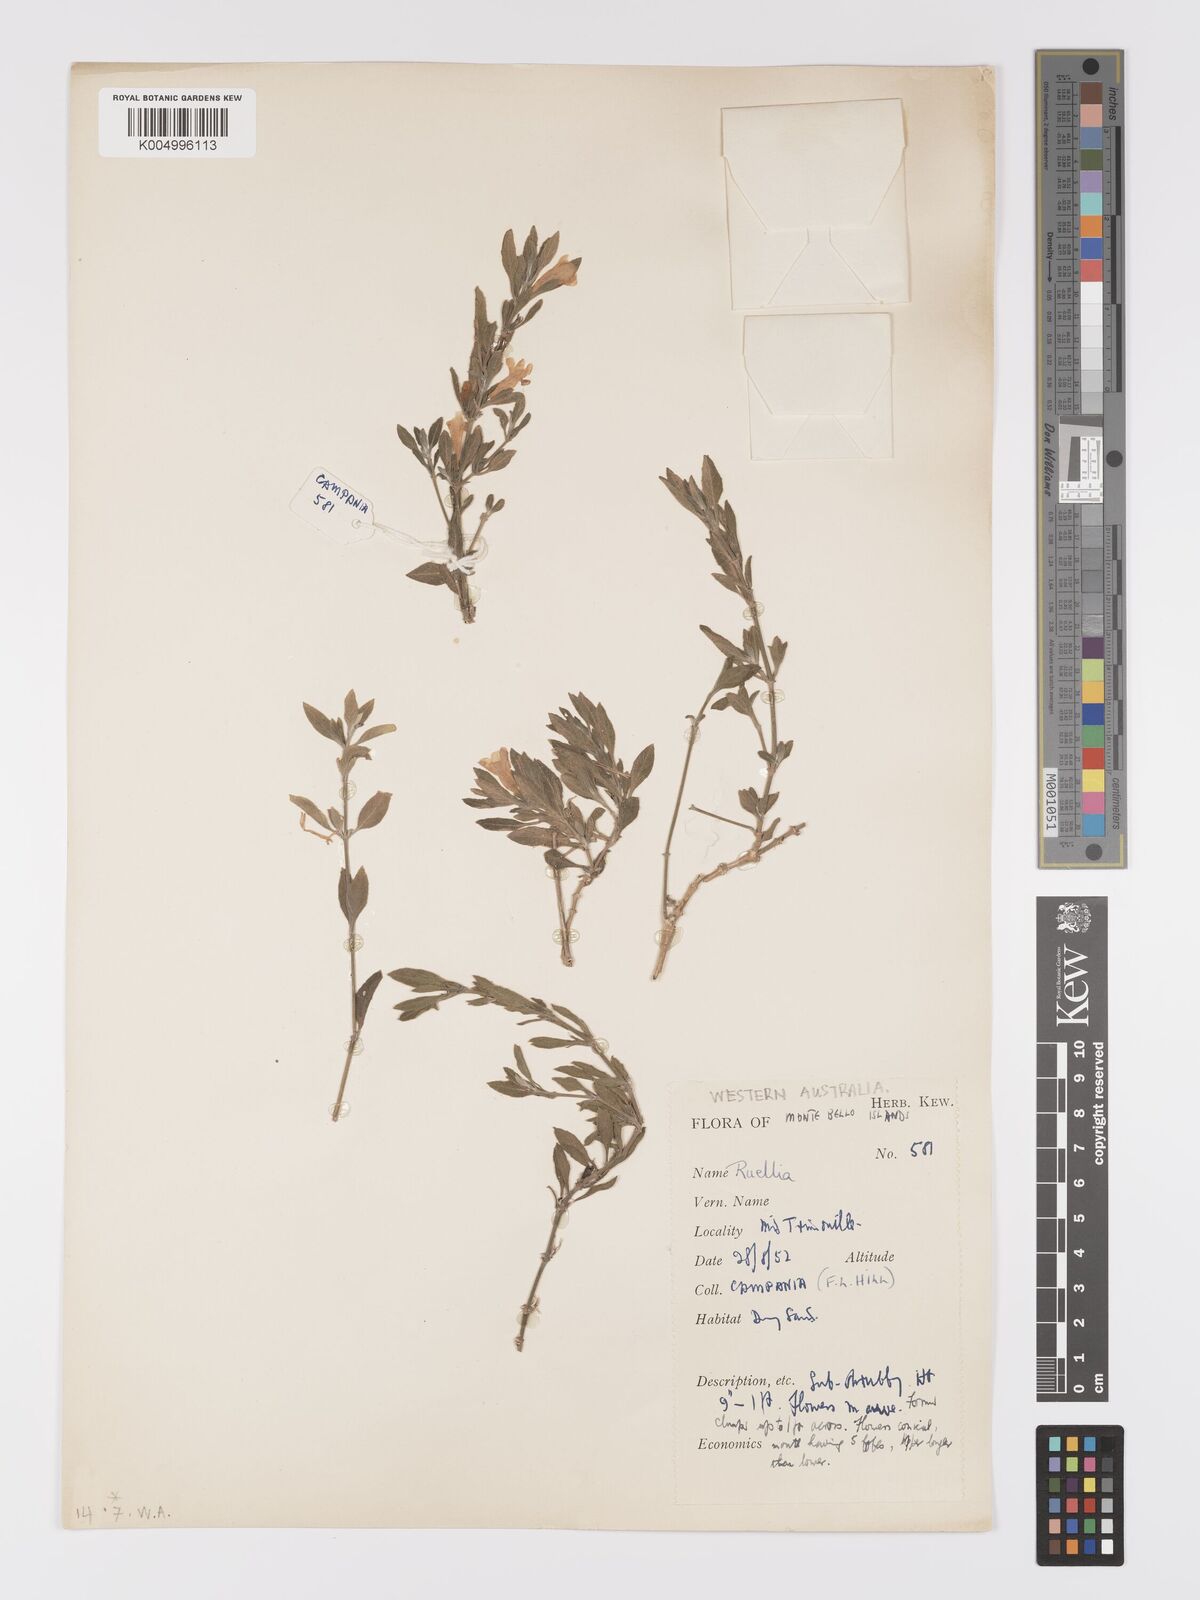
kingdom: Plantae
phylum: Tracheophyta
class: Magnoliopsida
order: Lamiales
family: Acanthaceae
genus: Ruellia
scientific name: Ruellia
